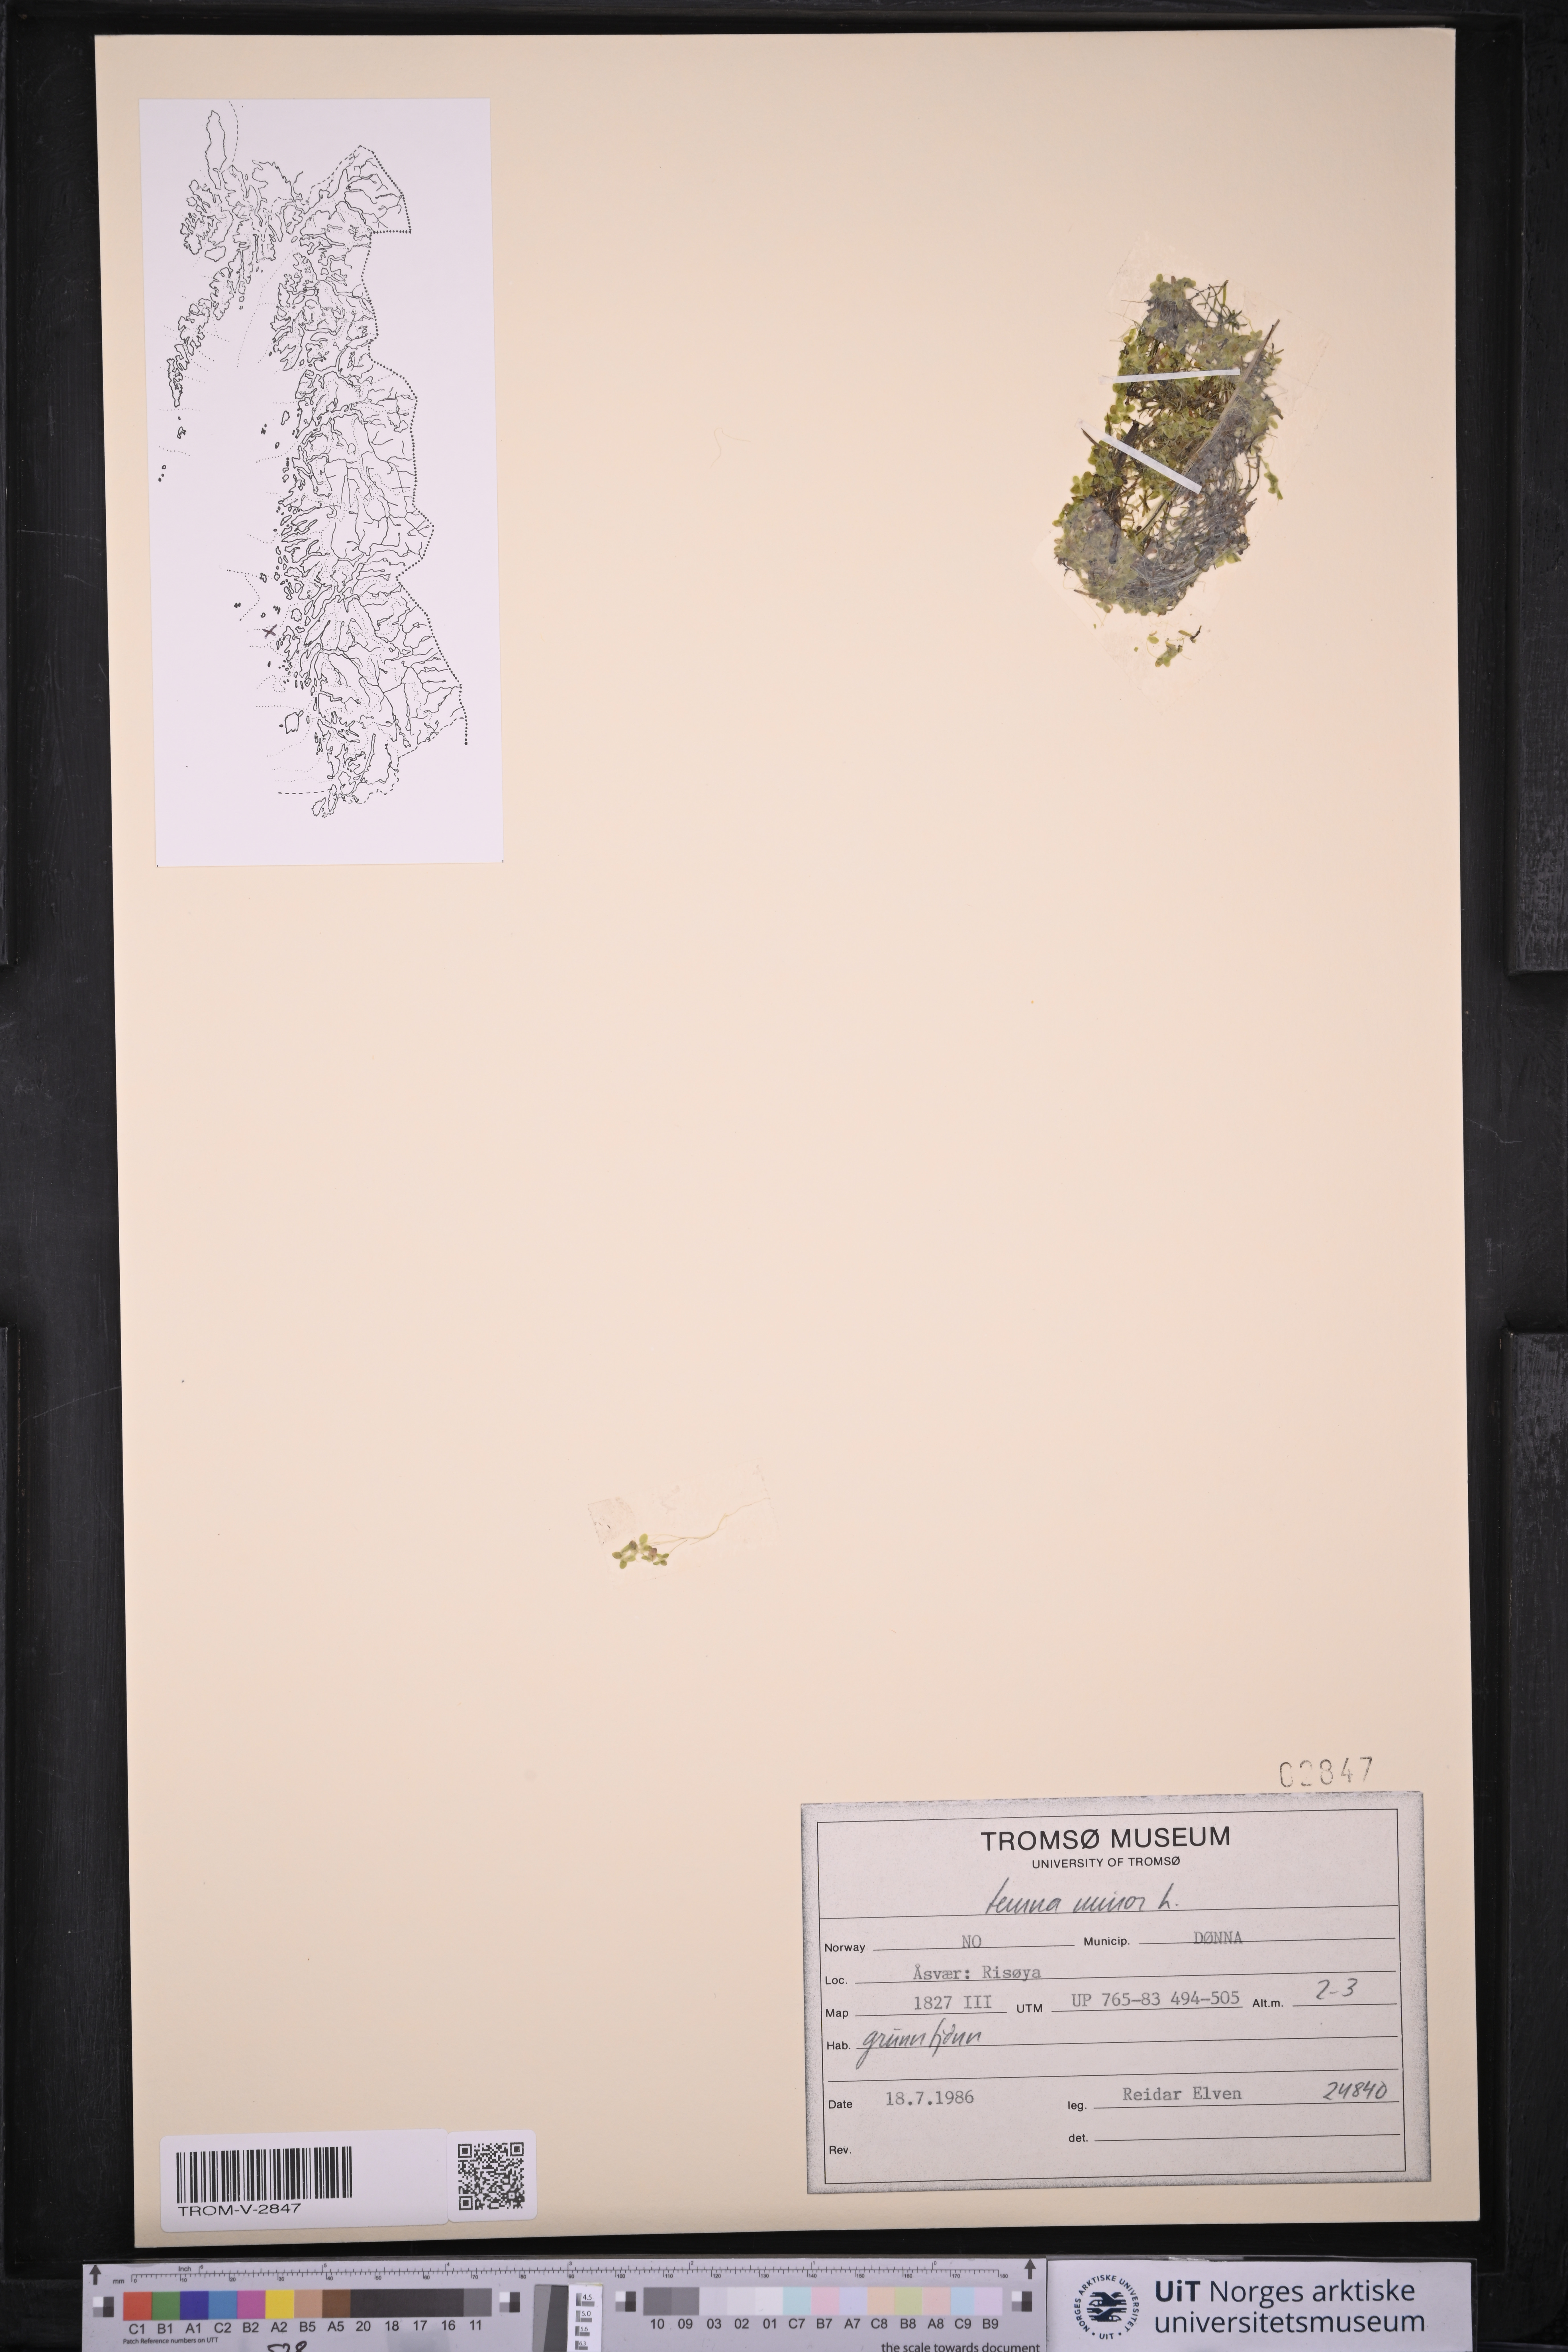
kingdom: Plantae
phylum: Tracheophyta
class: Liliopsida
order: Alismatales
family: Araceae
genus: Lemna
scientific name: Lemna minor
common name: Common duckweed
